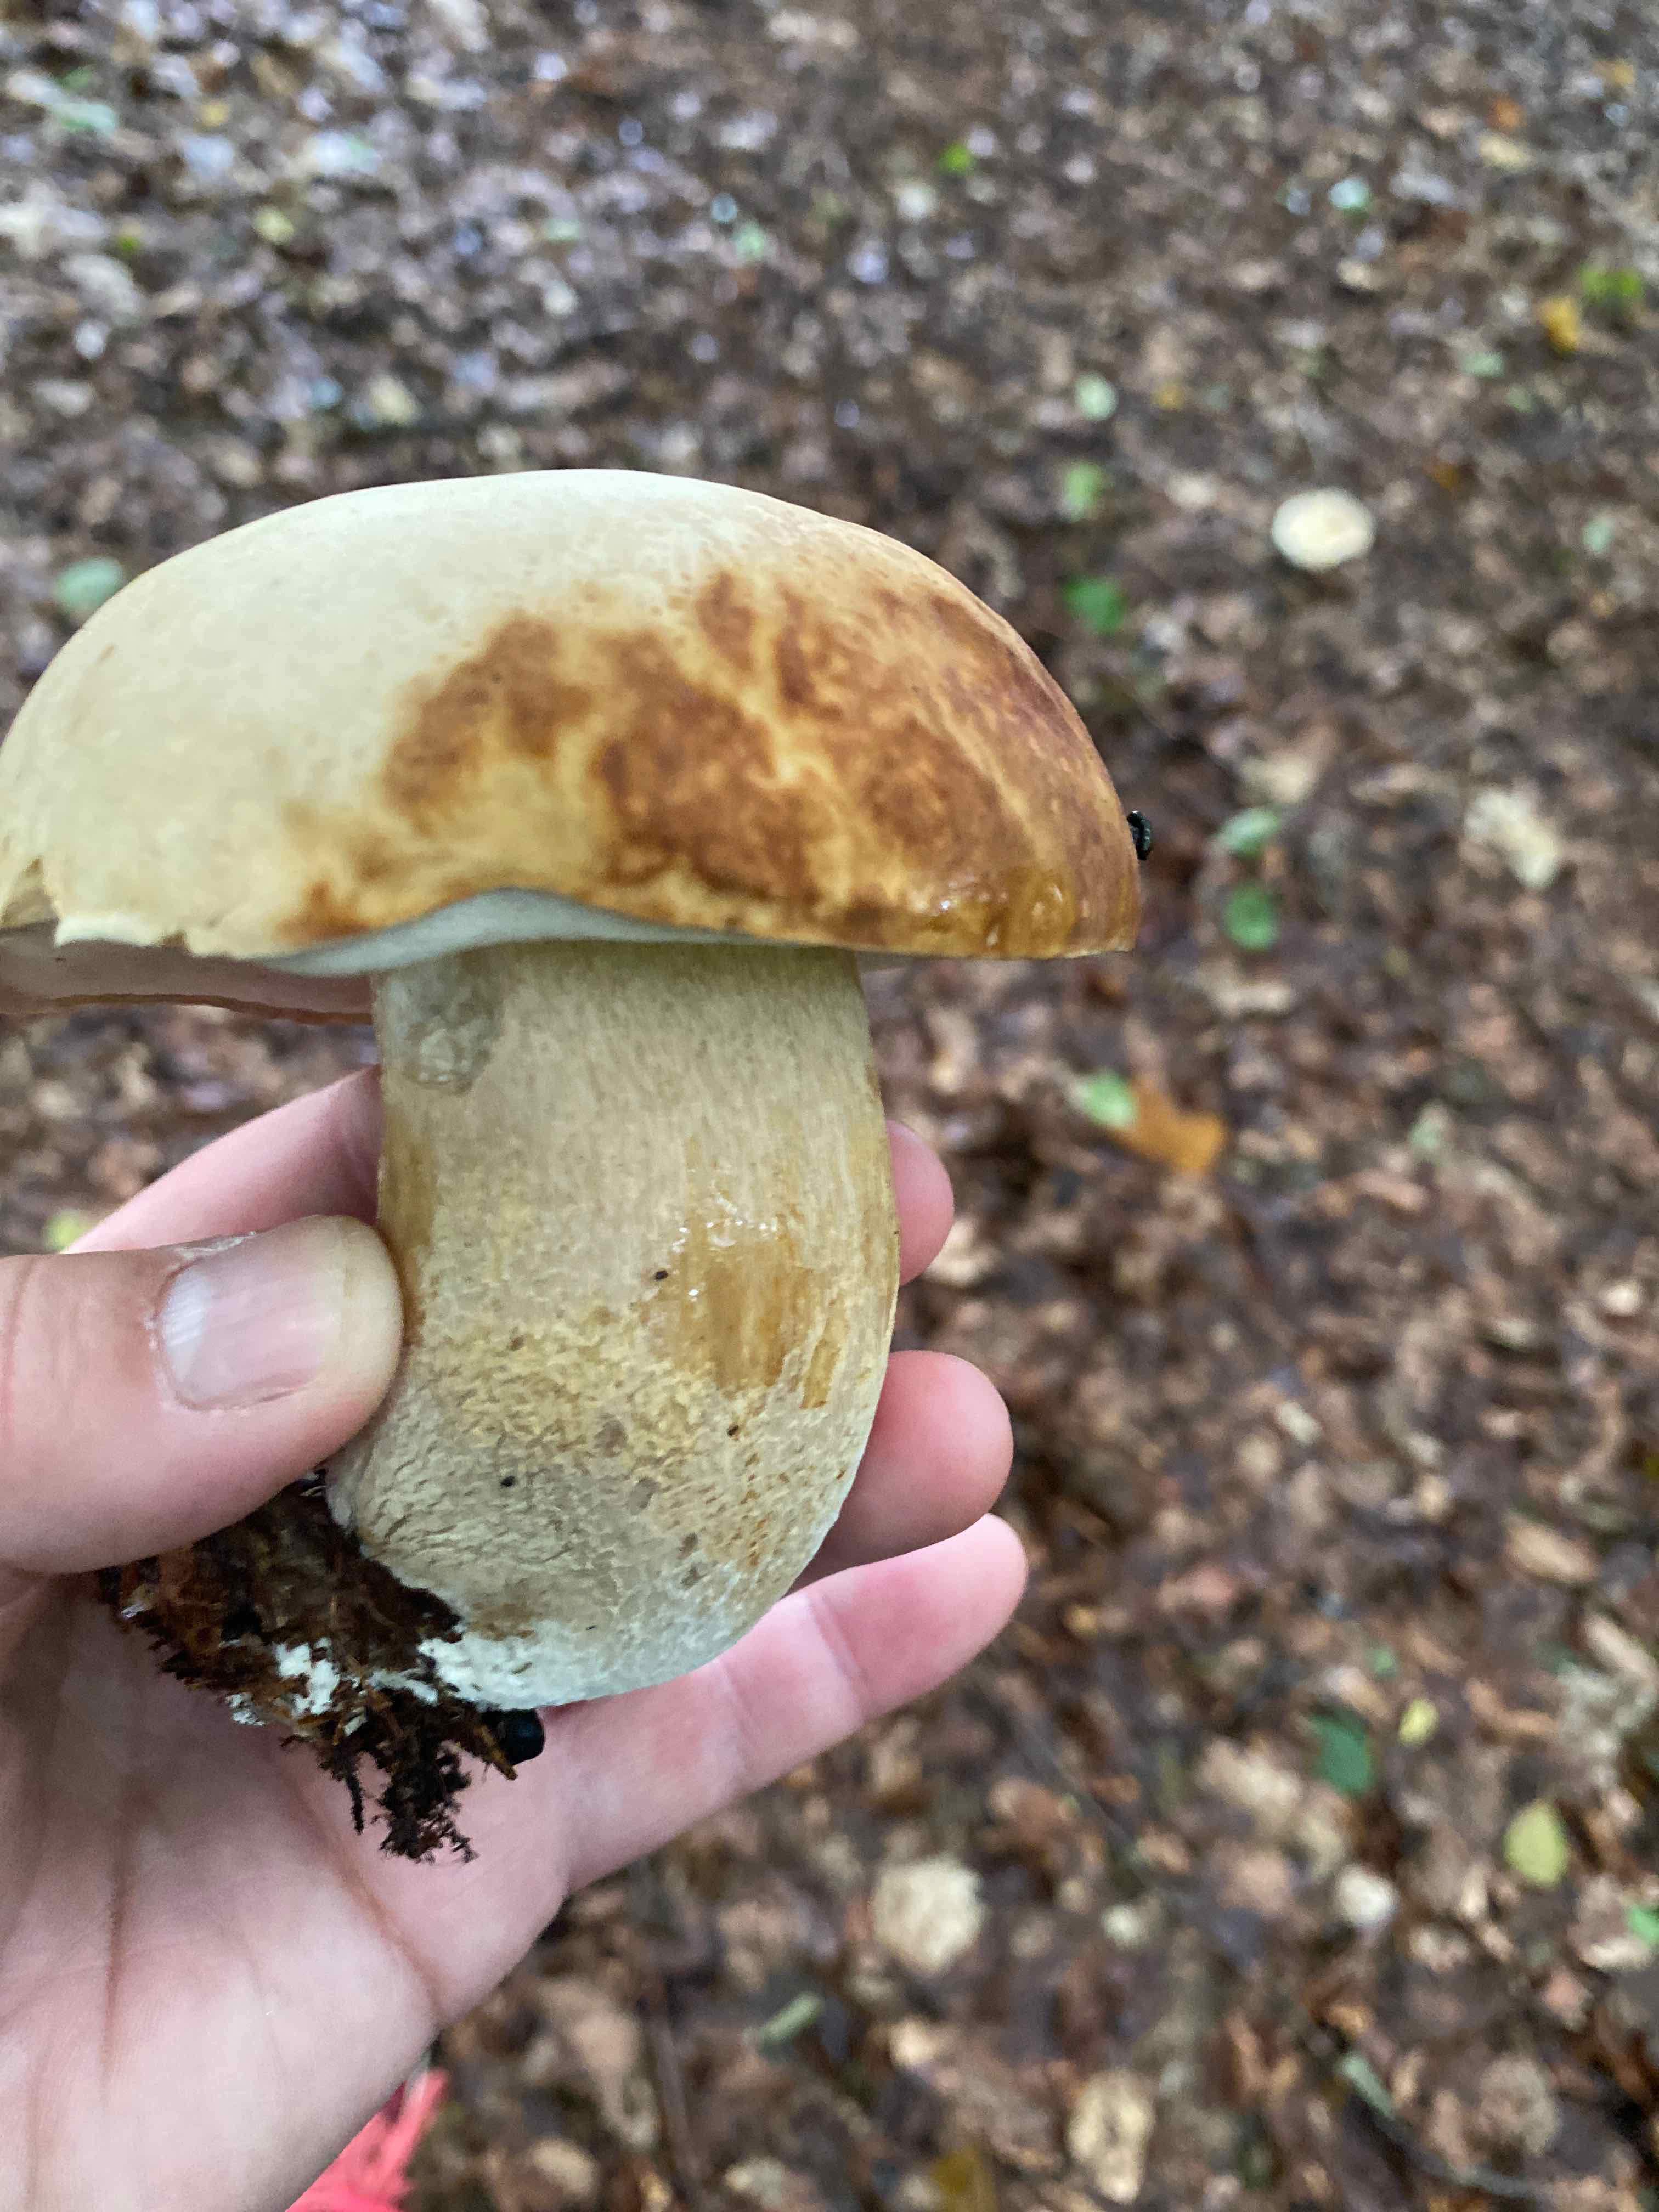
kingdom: Fungi
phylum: Basidiomycota
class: Agaricomycetes
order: Boletales
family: Boletaceae
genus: Boletus
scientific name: Boletus reticulatus
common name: sommer-rørhat
